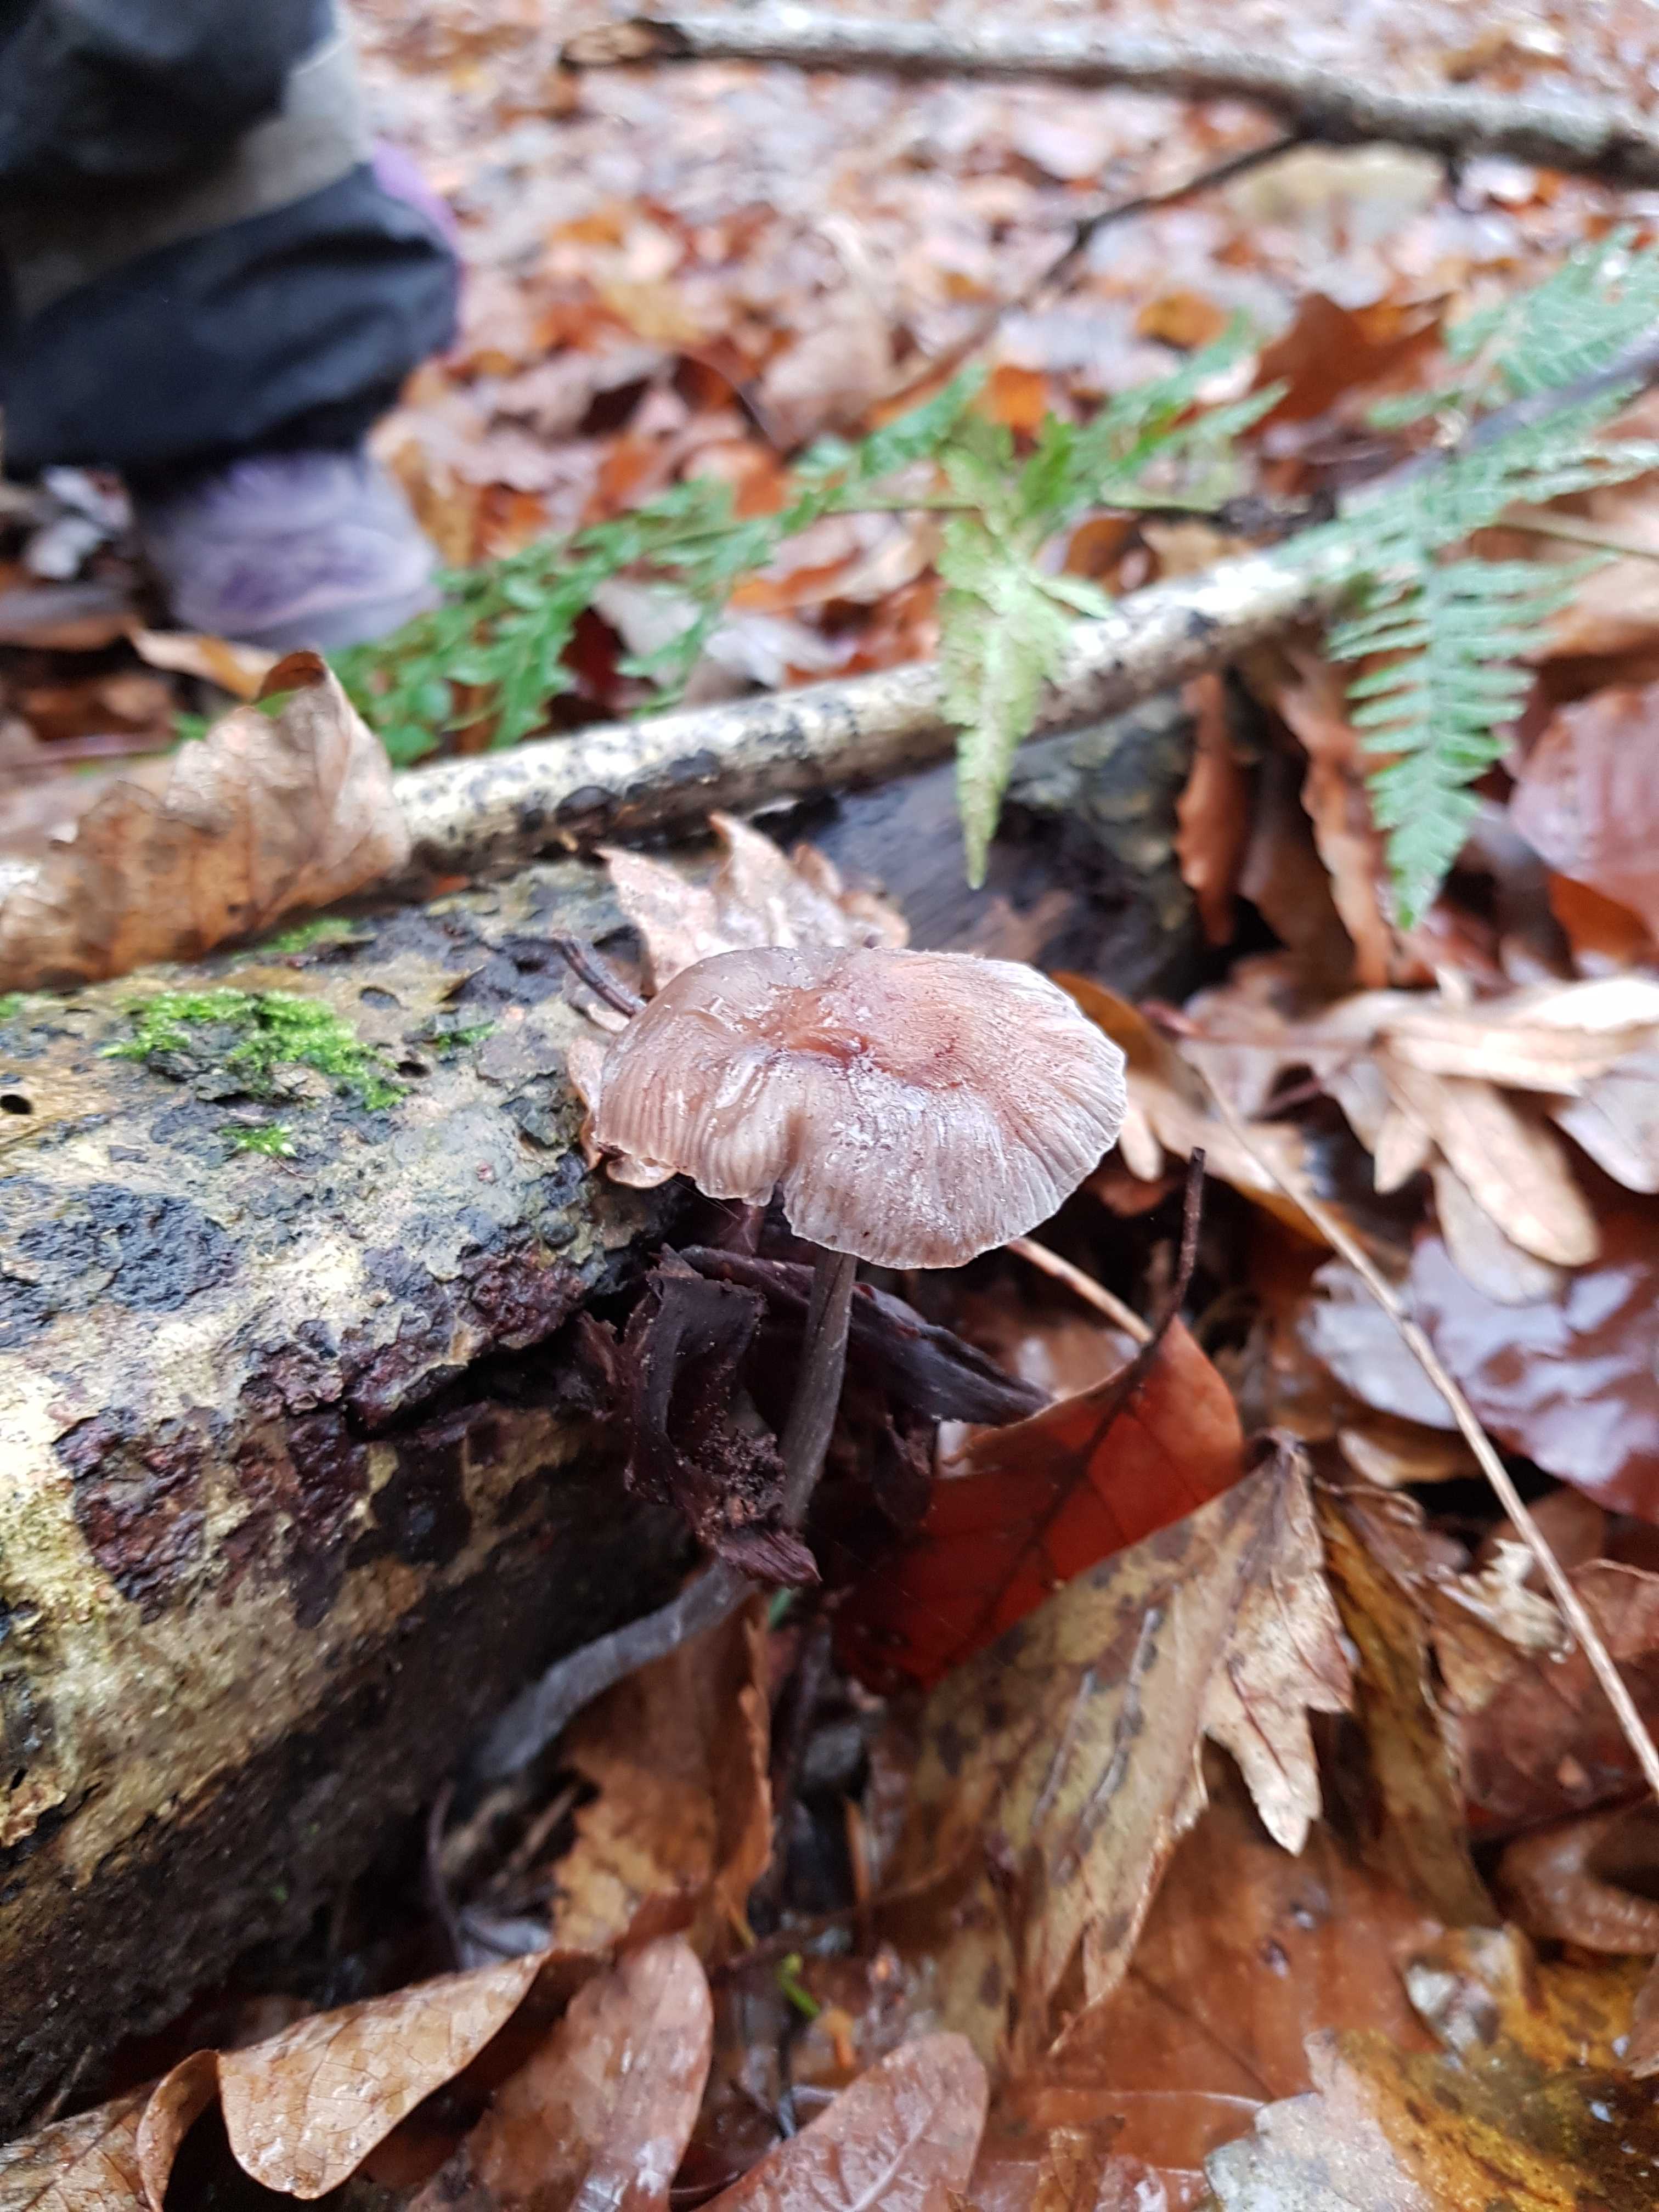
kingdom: Fungi
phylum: Basidiomycota
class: Agaricomycetes
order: Agaricales
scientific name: Agaricales
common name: champignonordenen
